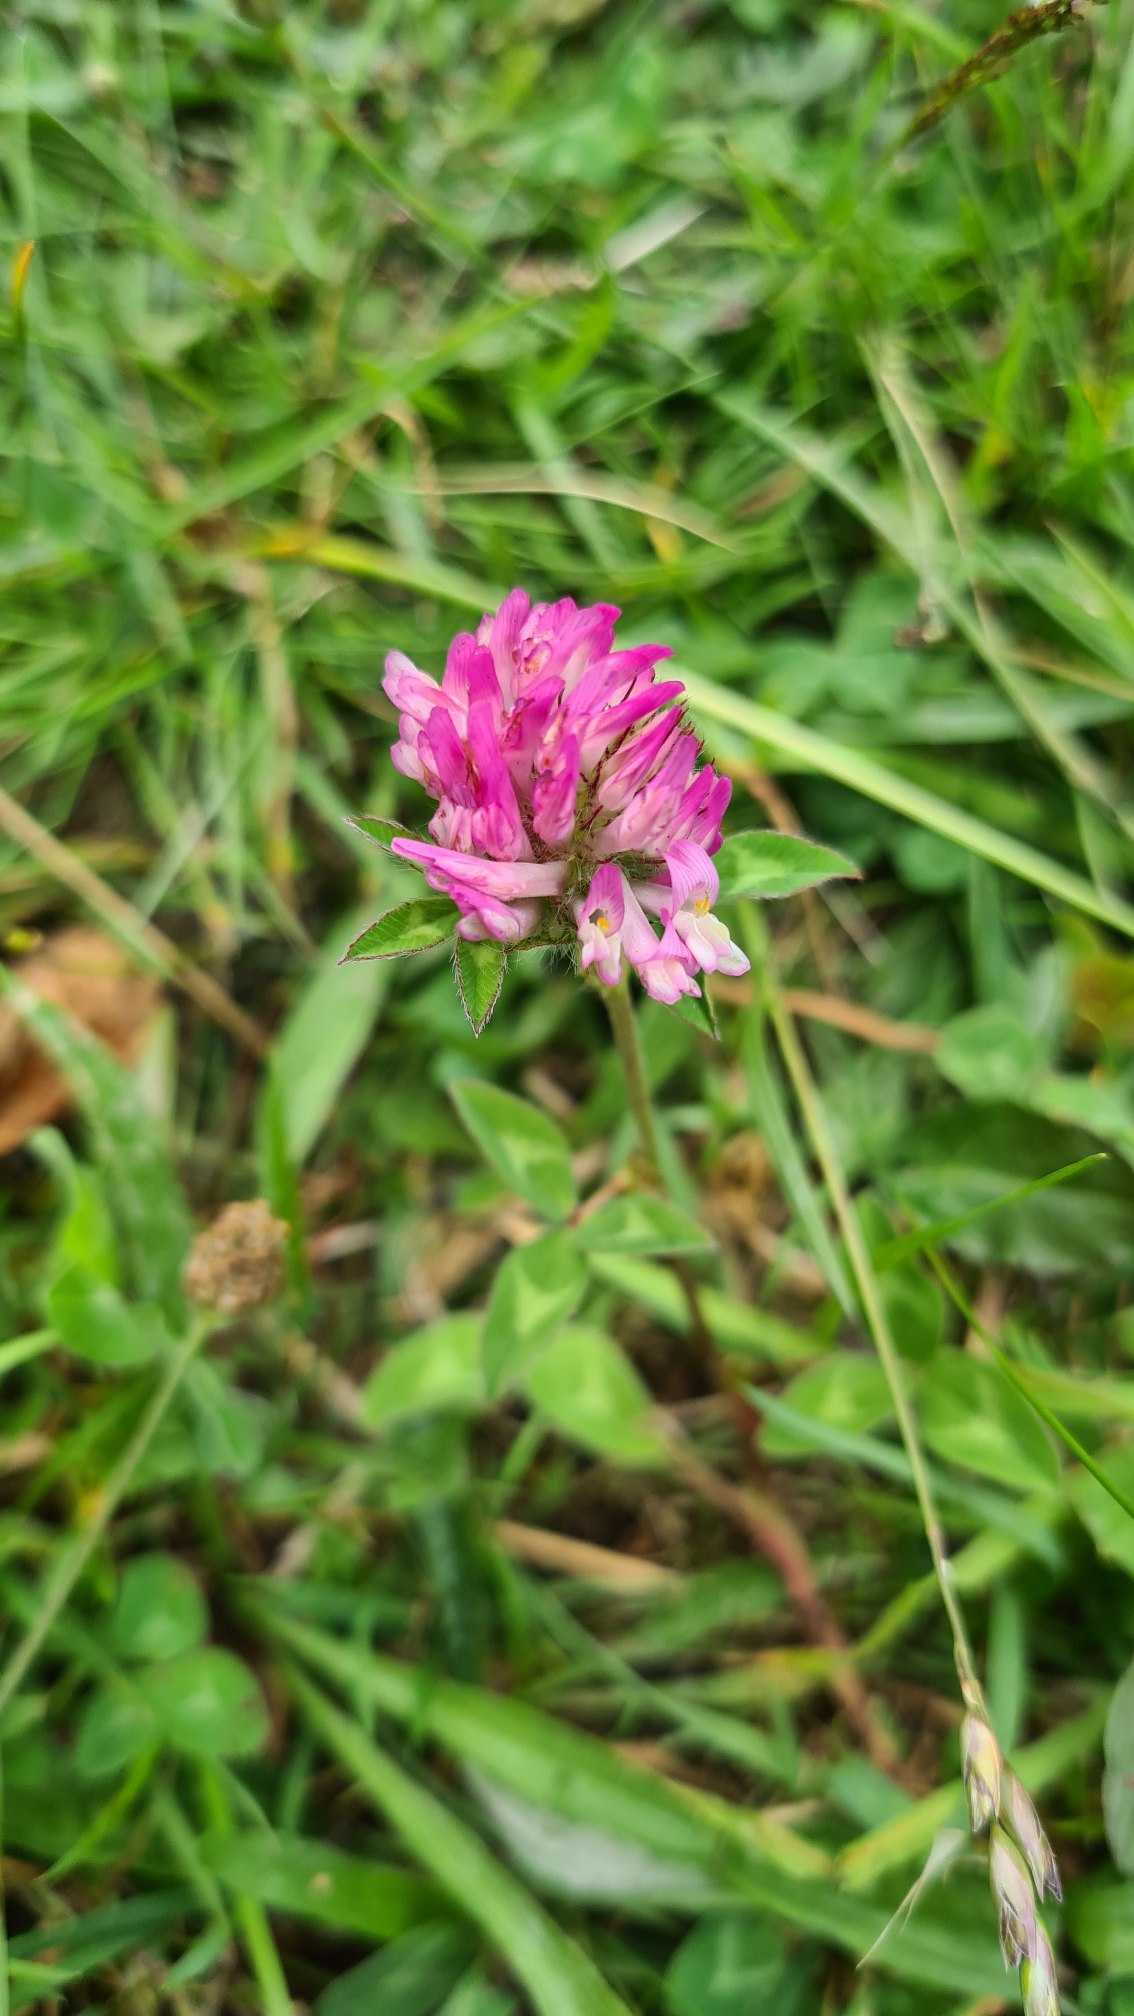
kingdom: Plantae
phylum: Tracheophyta
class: Magnoliopsida
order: Fabales
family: Fabaceae
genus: Trifolium
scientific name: Trifolium pratense
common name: Rød-kløver
